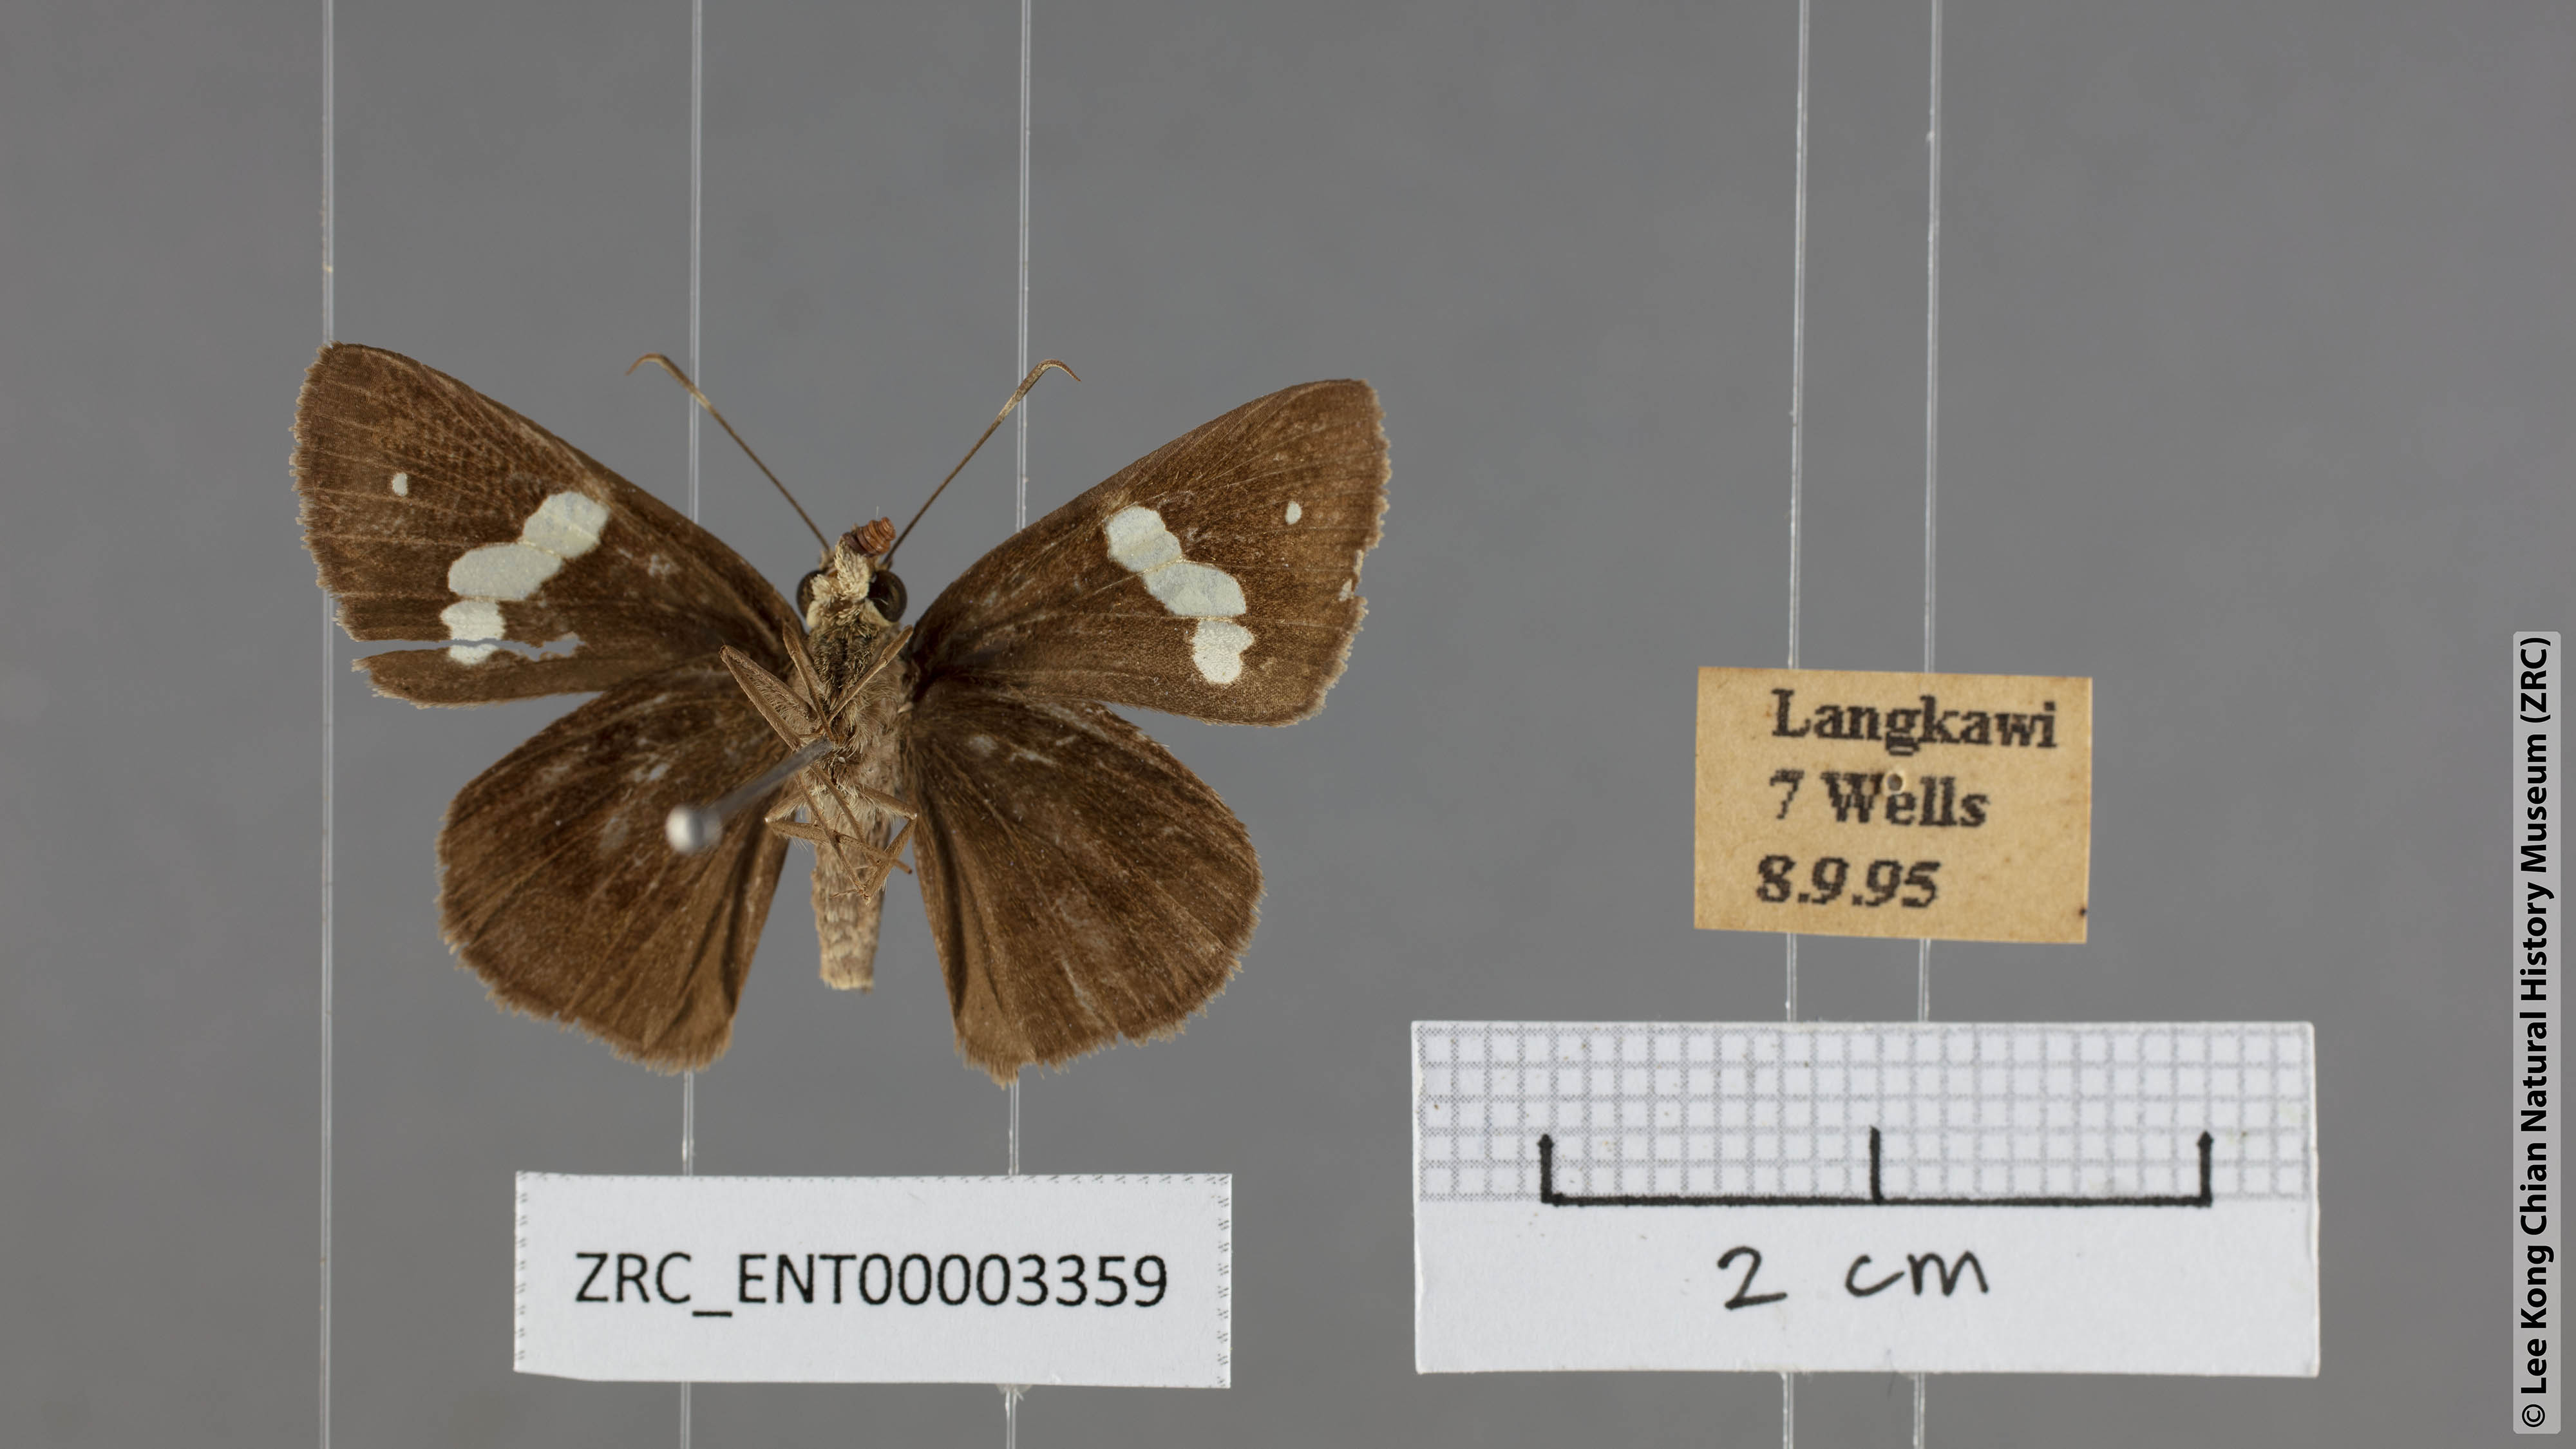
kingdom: Animalia
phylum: Arthropoda
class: Insecta
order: Lepidoptera
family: Hesperiidae
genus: Notocrypta
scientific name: Notocrypta paralysos
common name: Common banded demon
